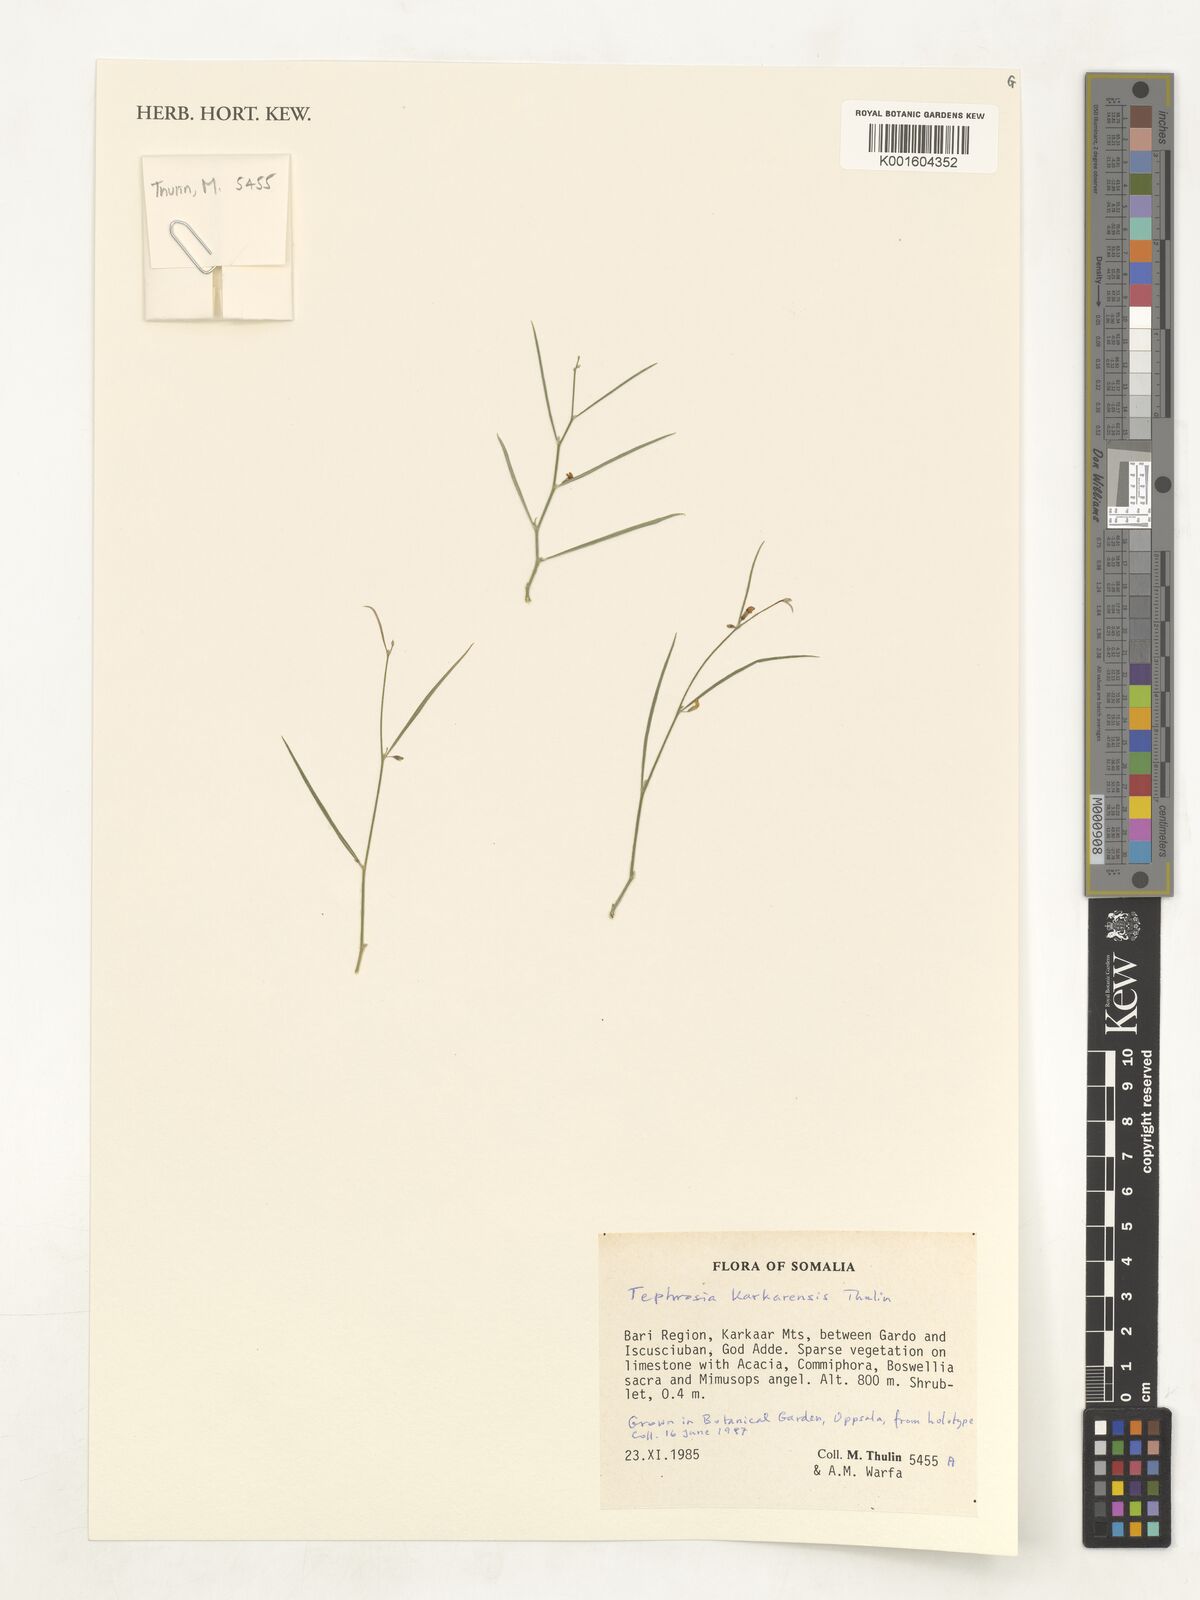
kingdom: Plantae
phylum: Tracheophyta
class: Magnoliopsida
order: Fabales
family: Fabaceae
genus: Tephrosia
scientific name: Tephrosia karkarensis
